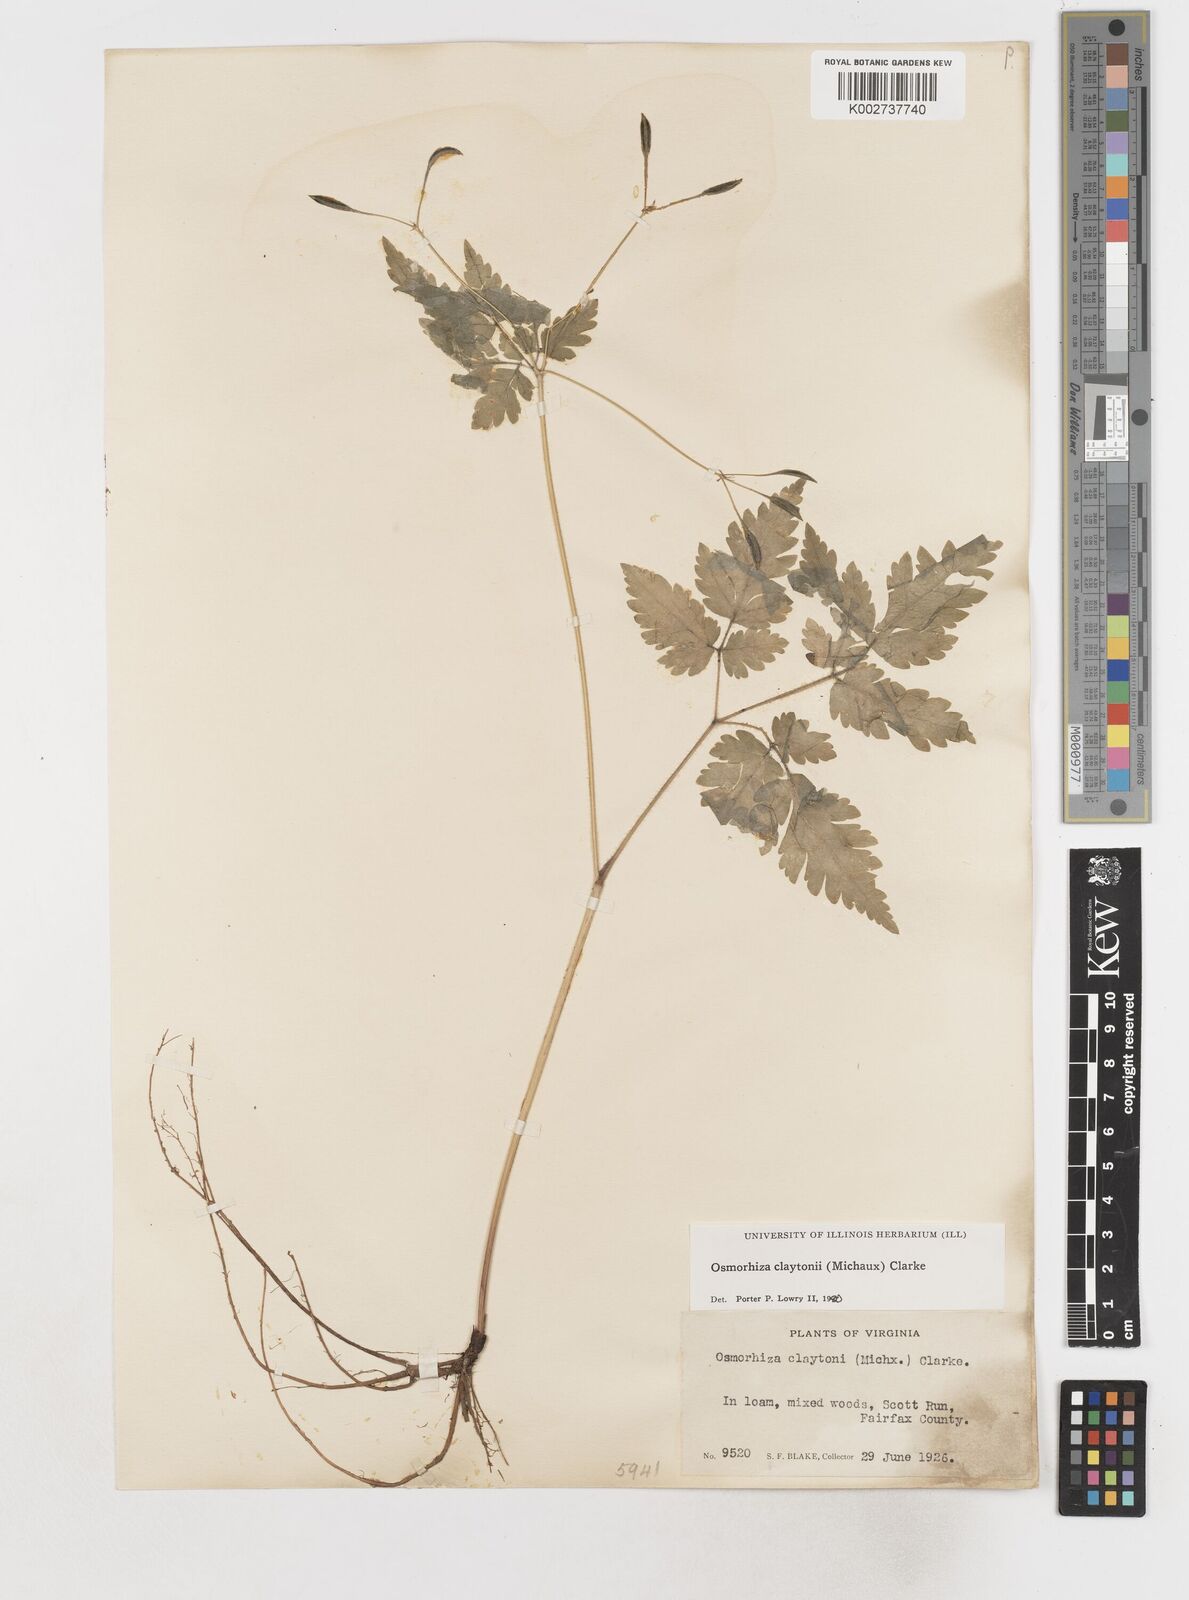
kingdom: Plantae
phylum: Tracheophyta
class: Magnoliopsida
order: Apiales
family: Apiaceae
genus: Osmorhiza
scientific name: Osmorhiza claytonii
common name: Hairy sweet cicely
